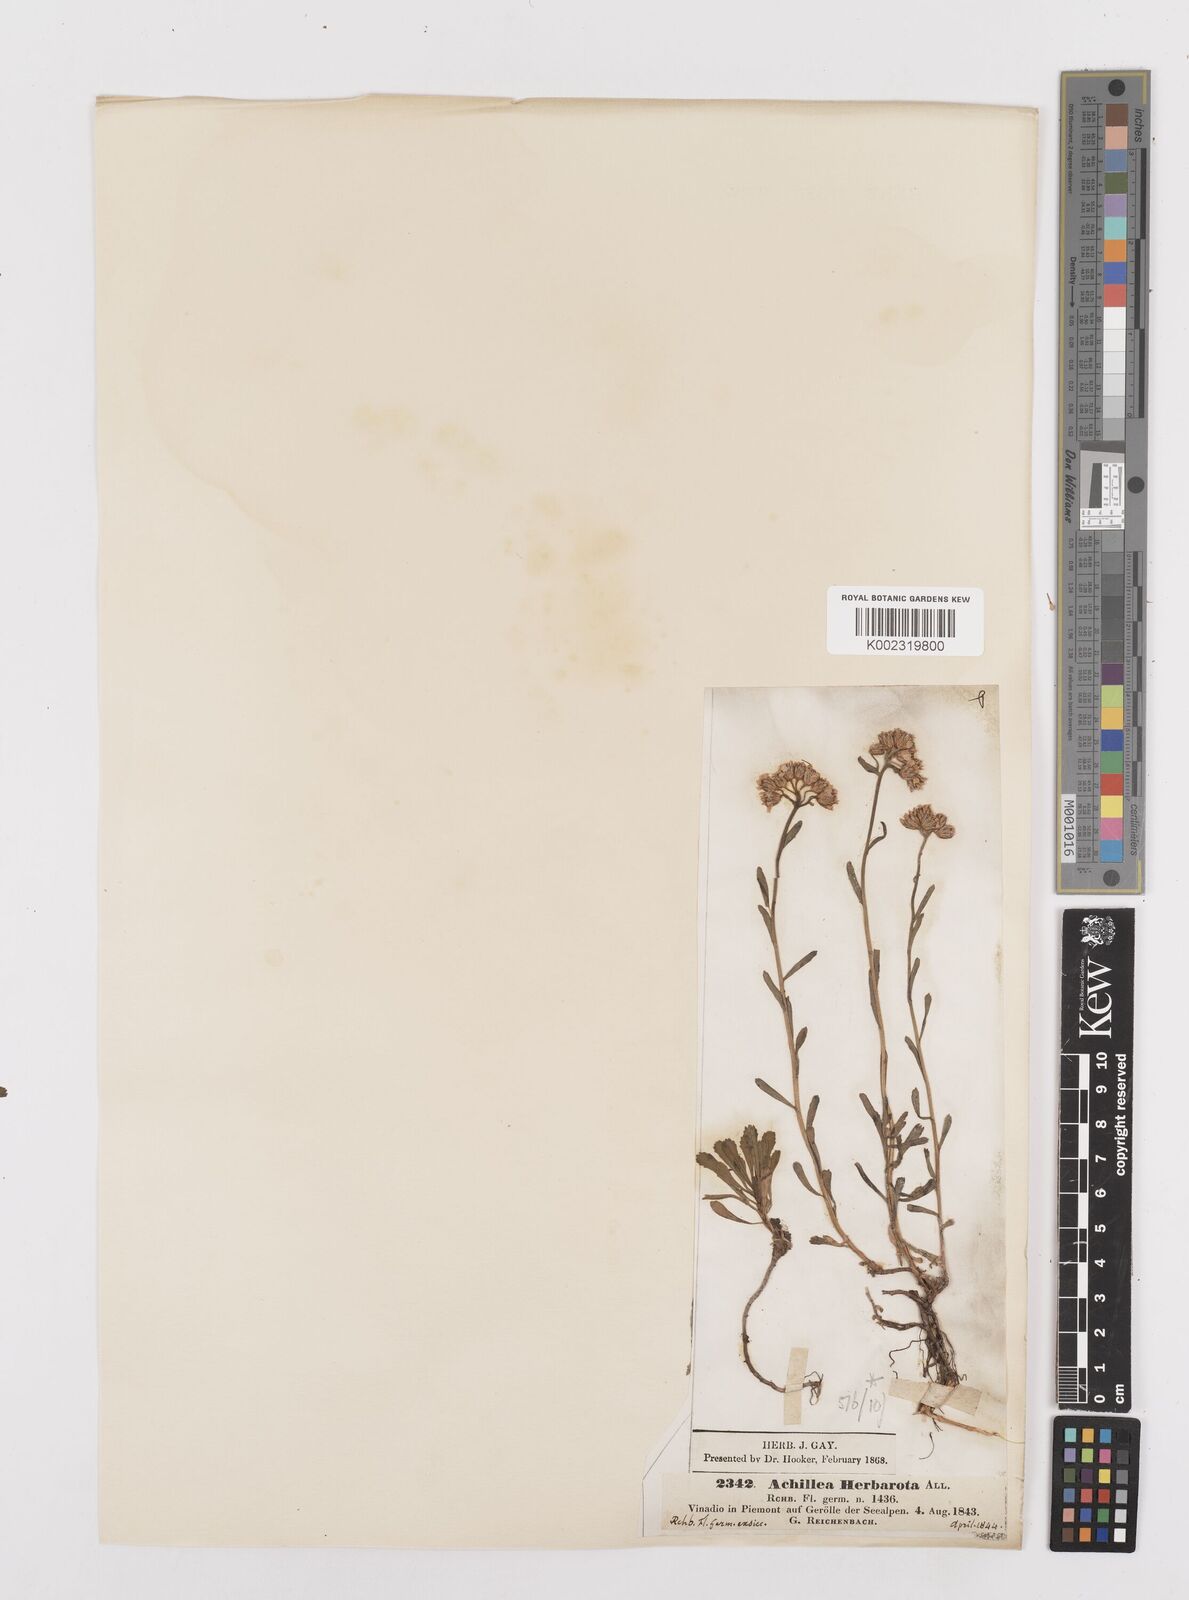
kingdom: Plantae
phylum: Tracheophyta
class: Magnoliopsida
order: Asterales
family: Asteraceae
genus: Achillea
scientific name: Achillea erba-rotta
